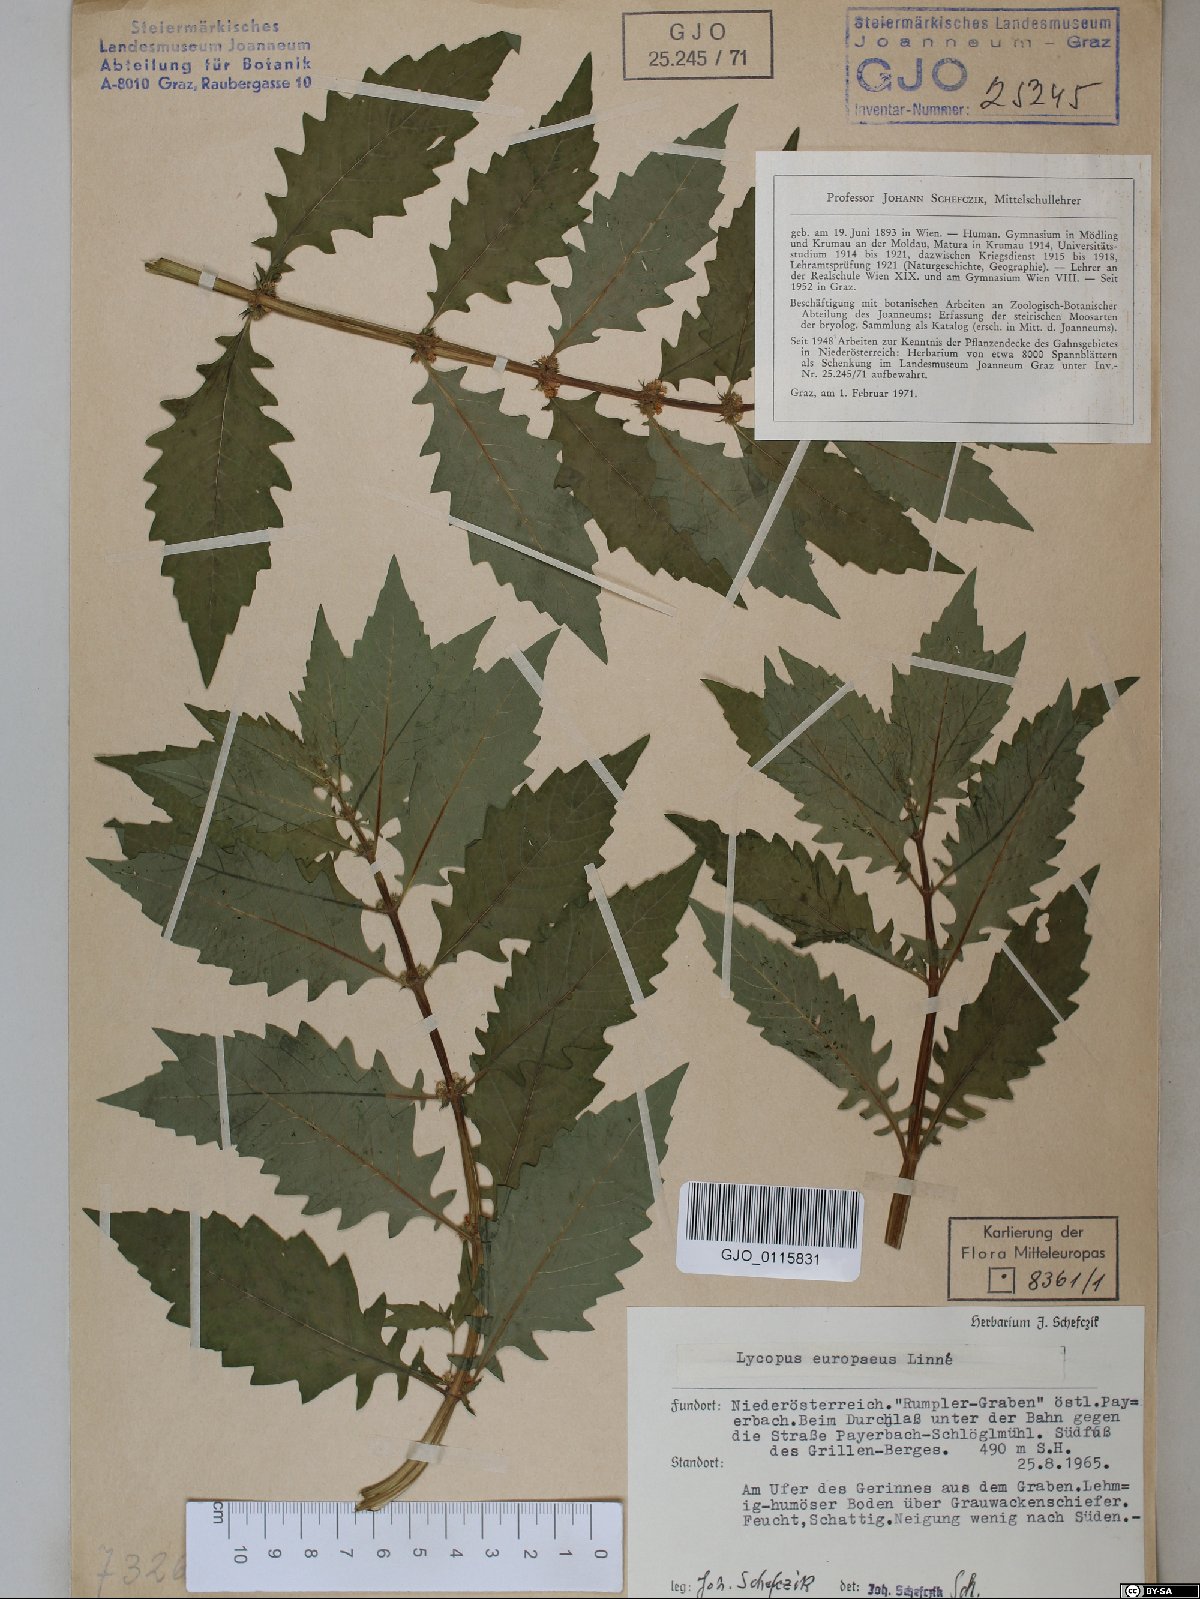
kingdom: Plantae
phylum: Tracheophyta
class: Magnoliopsida
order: Lamiales
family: Lamiaceae
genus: Lycopus
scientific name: Lycopus europaeus
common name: European bugleweed
